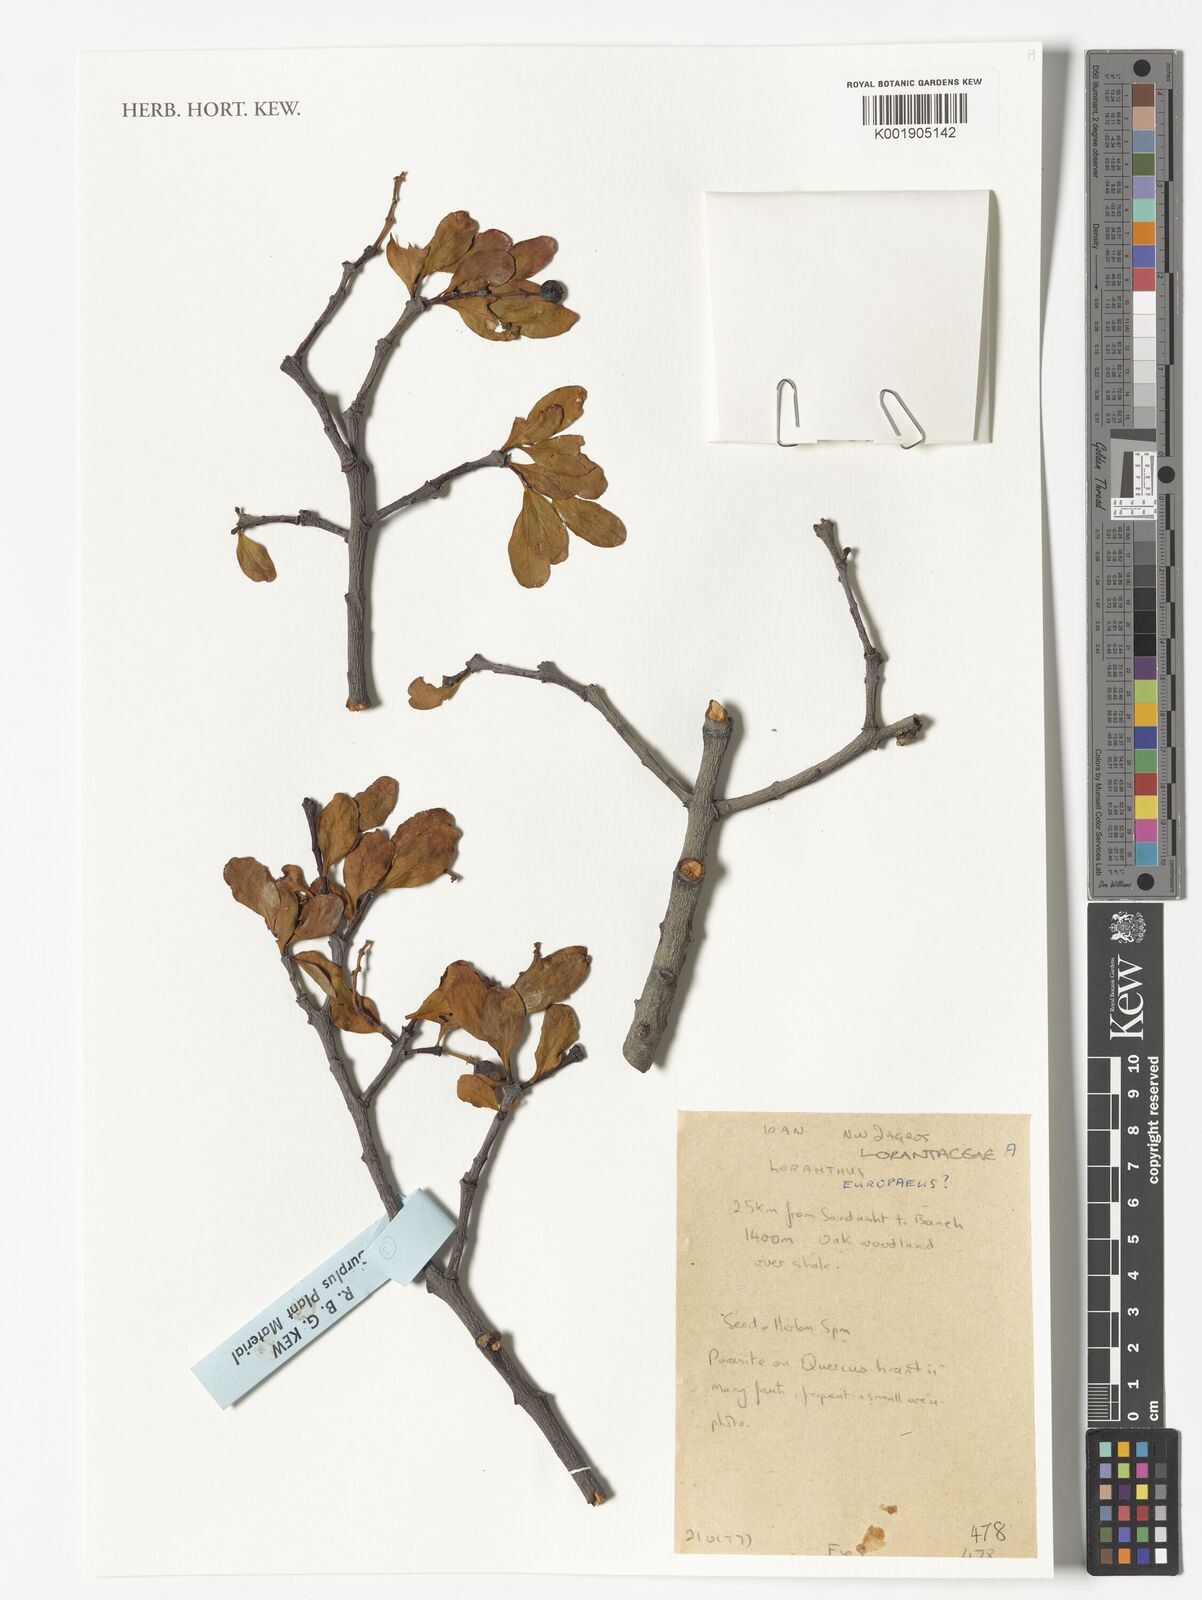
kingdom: Plantae
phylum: Tracheophyta
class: Magnoliopsida
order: Santalales
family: Loranthaceae
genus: Loranthus
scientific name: Loranthus europaeus
